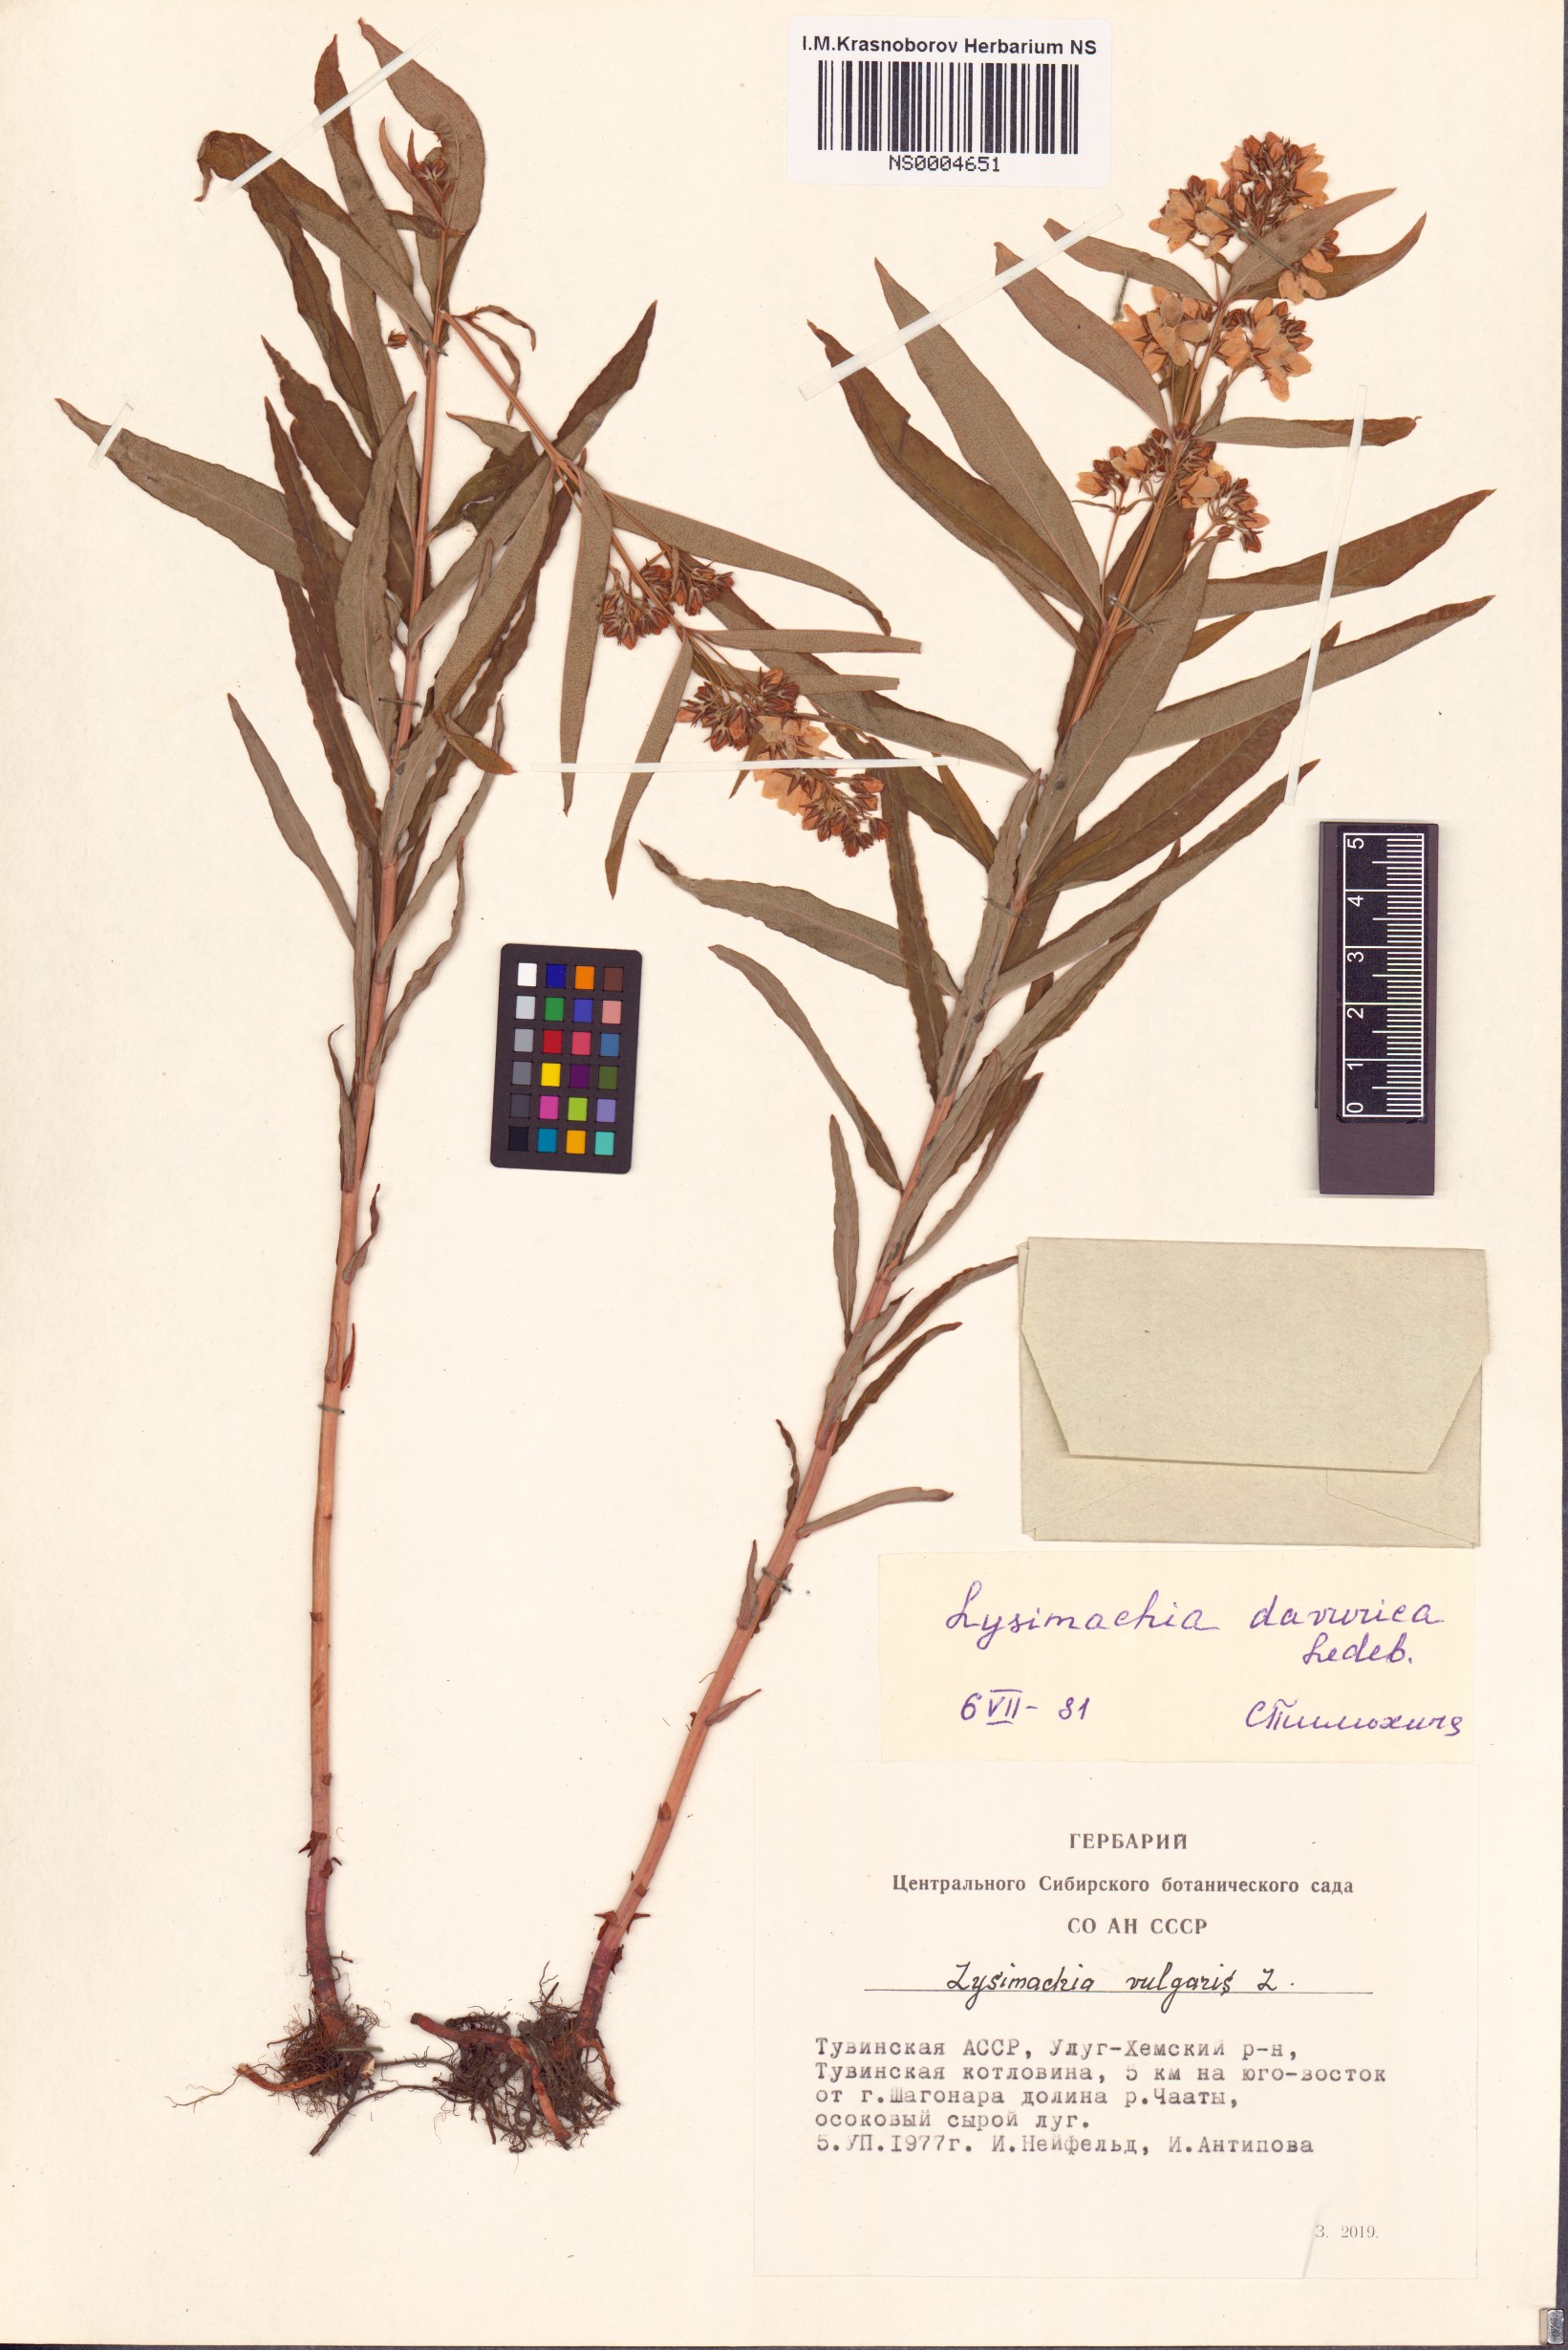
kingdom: Plantae
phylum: Tracheophyta
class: Magnoliopsida
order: Ericales
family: Primulaceae
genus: Lysimachia
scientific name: Lysimachia davurica
